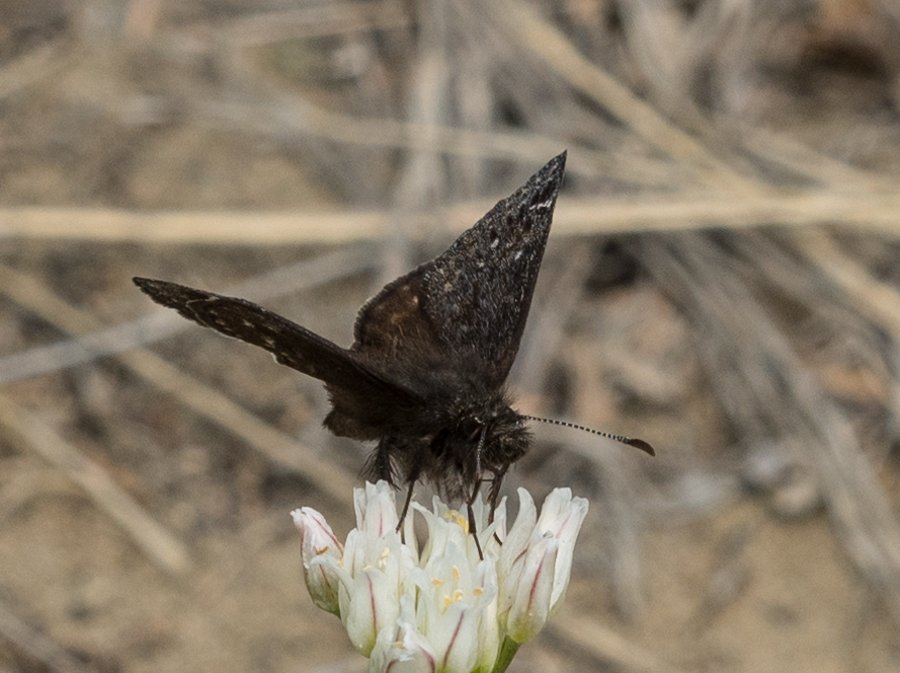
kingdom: Animalia
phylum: Arthropoda
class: Insecta
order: Lepidoptera
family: Hesperiidae
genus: Gesta
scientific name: Gesta
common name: Persius Duskywing
